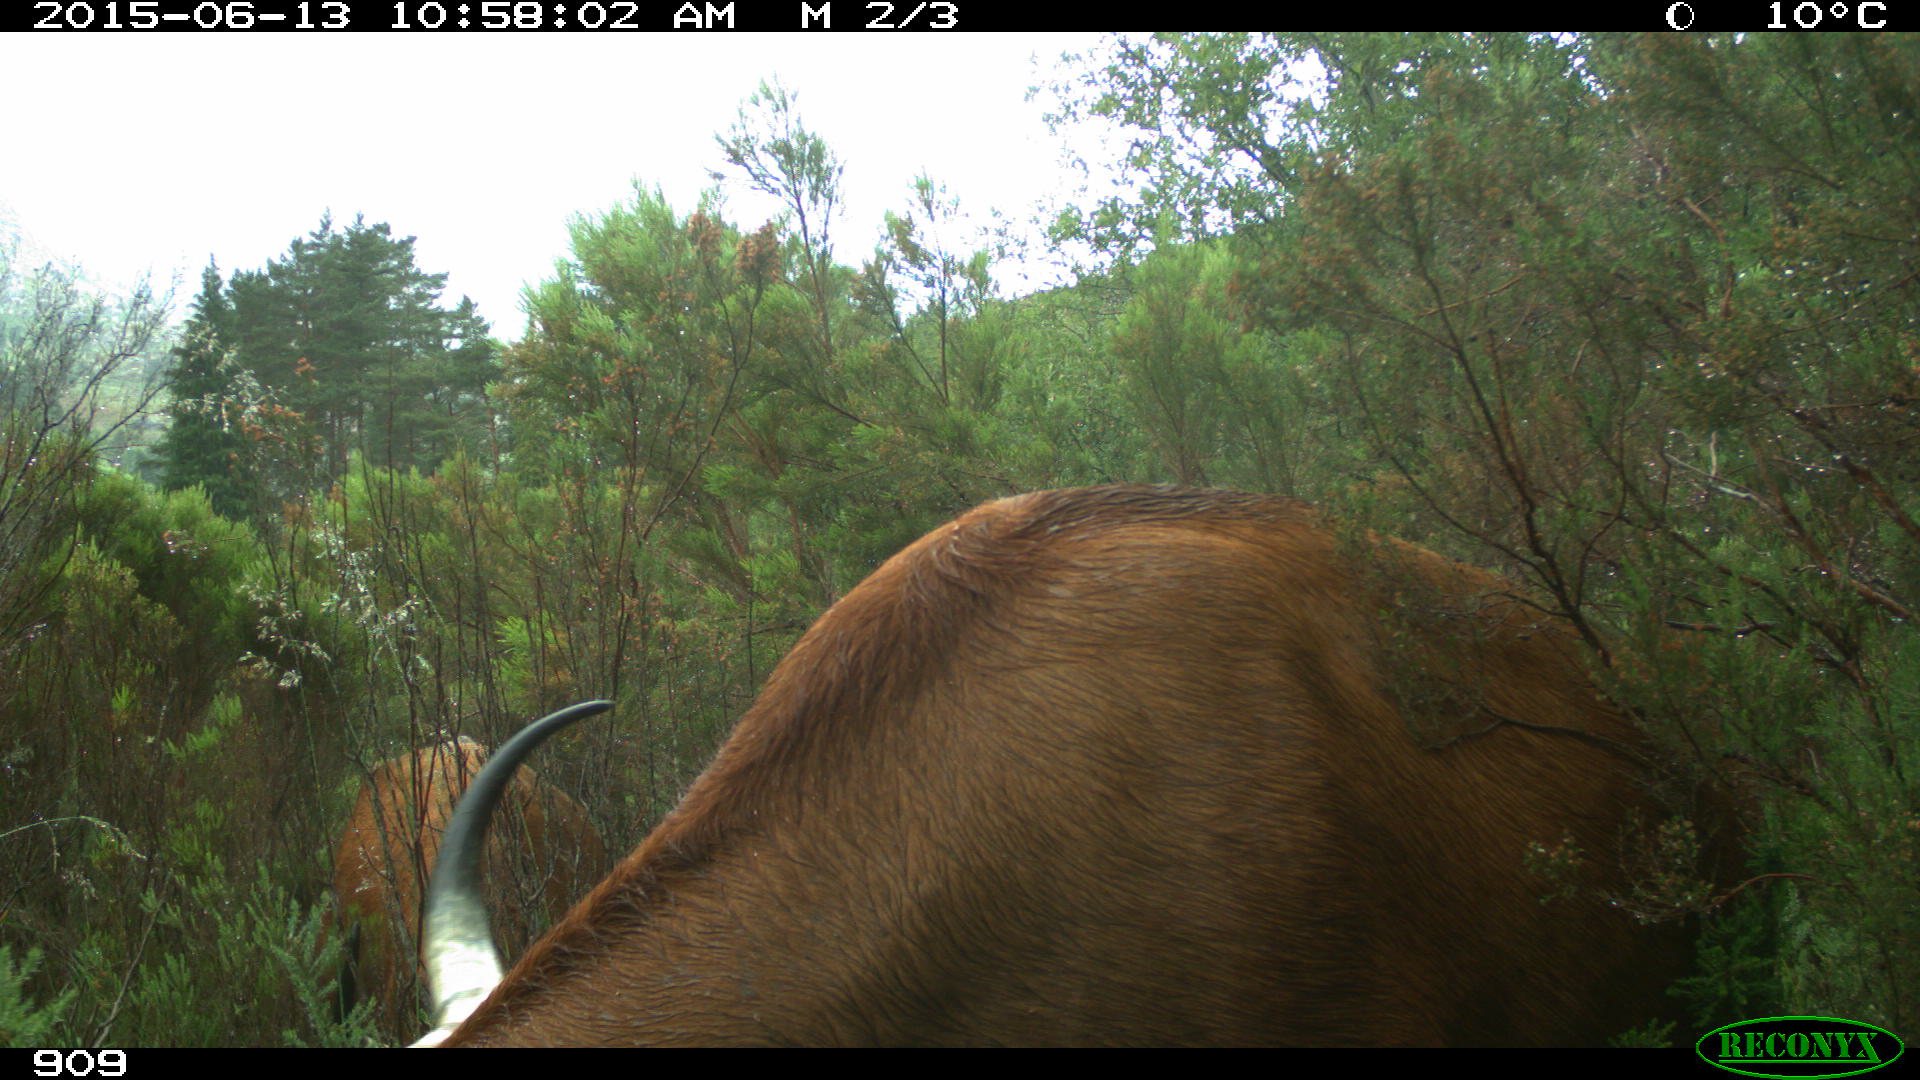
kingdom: Animalia
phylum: Chordata
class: Mammalia
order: Artiodactyla
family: Bovidae
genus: Bos
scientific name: Bos taurus
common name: Domesticated cattle
